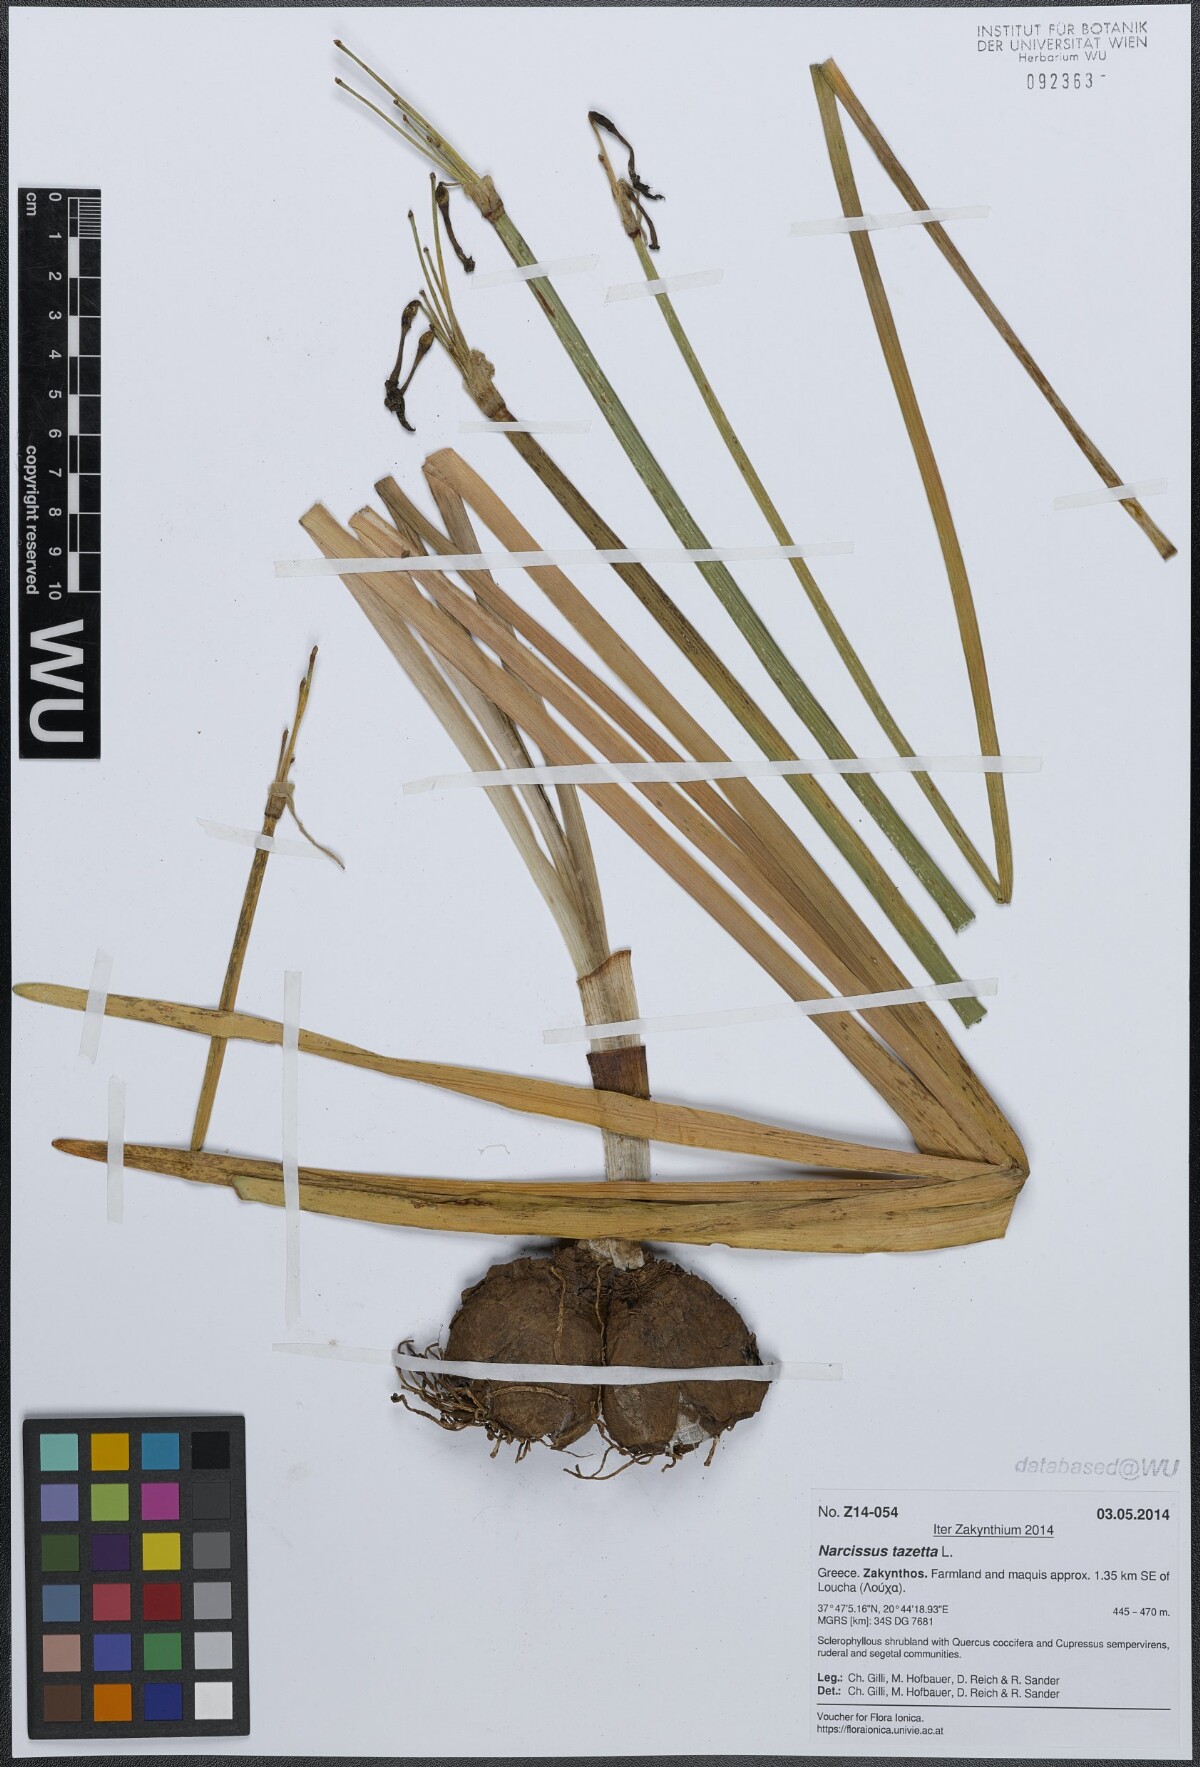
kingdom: Plantae
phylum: Tracheophyta
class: Liliopsida
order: Asparagales
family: Amaryllidaceae
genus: Narcissus
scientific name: Narcissus tazetta
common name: Bunch-flowered daffodil
